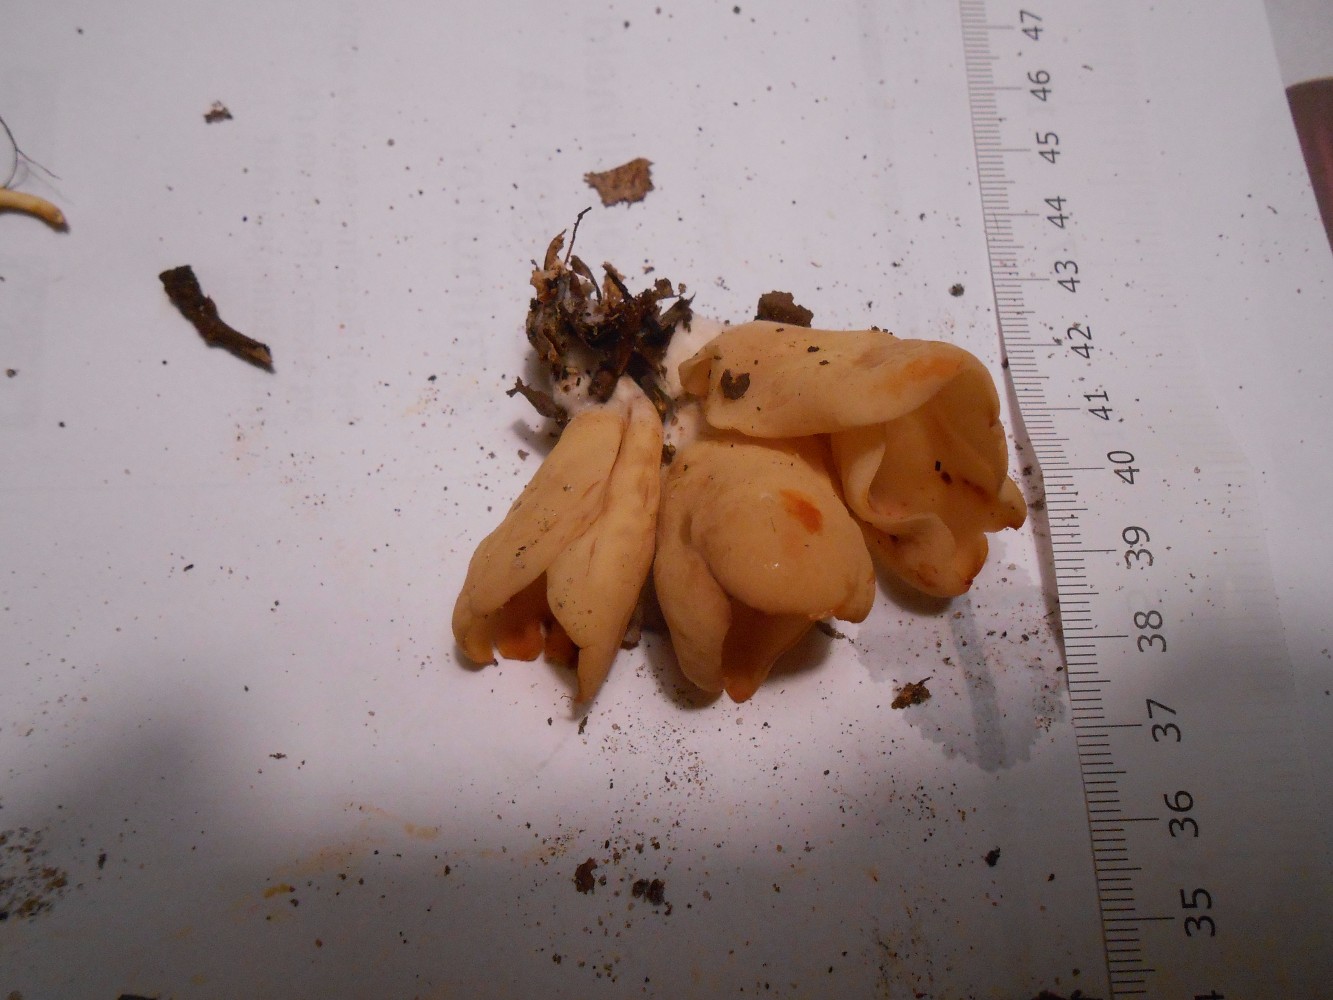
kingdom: Fungi
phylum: Ascomycota
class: Pezizomycetes
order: Pezizales
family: Otideaceae
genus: Otidea
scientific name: Otidea onotica
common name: æsel-ørebæger
